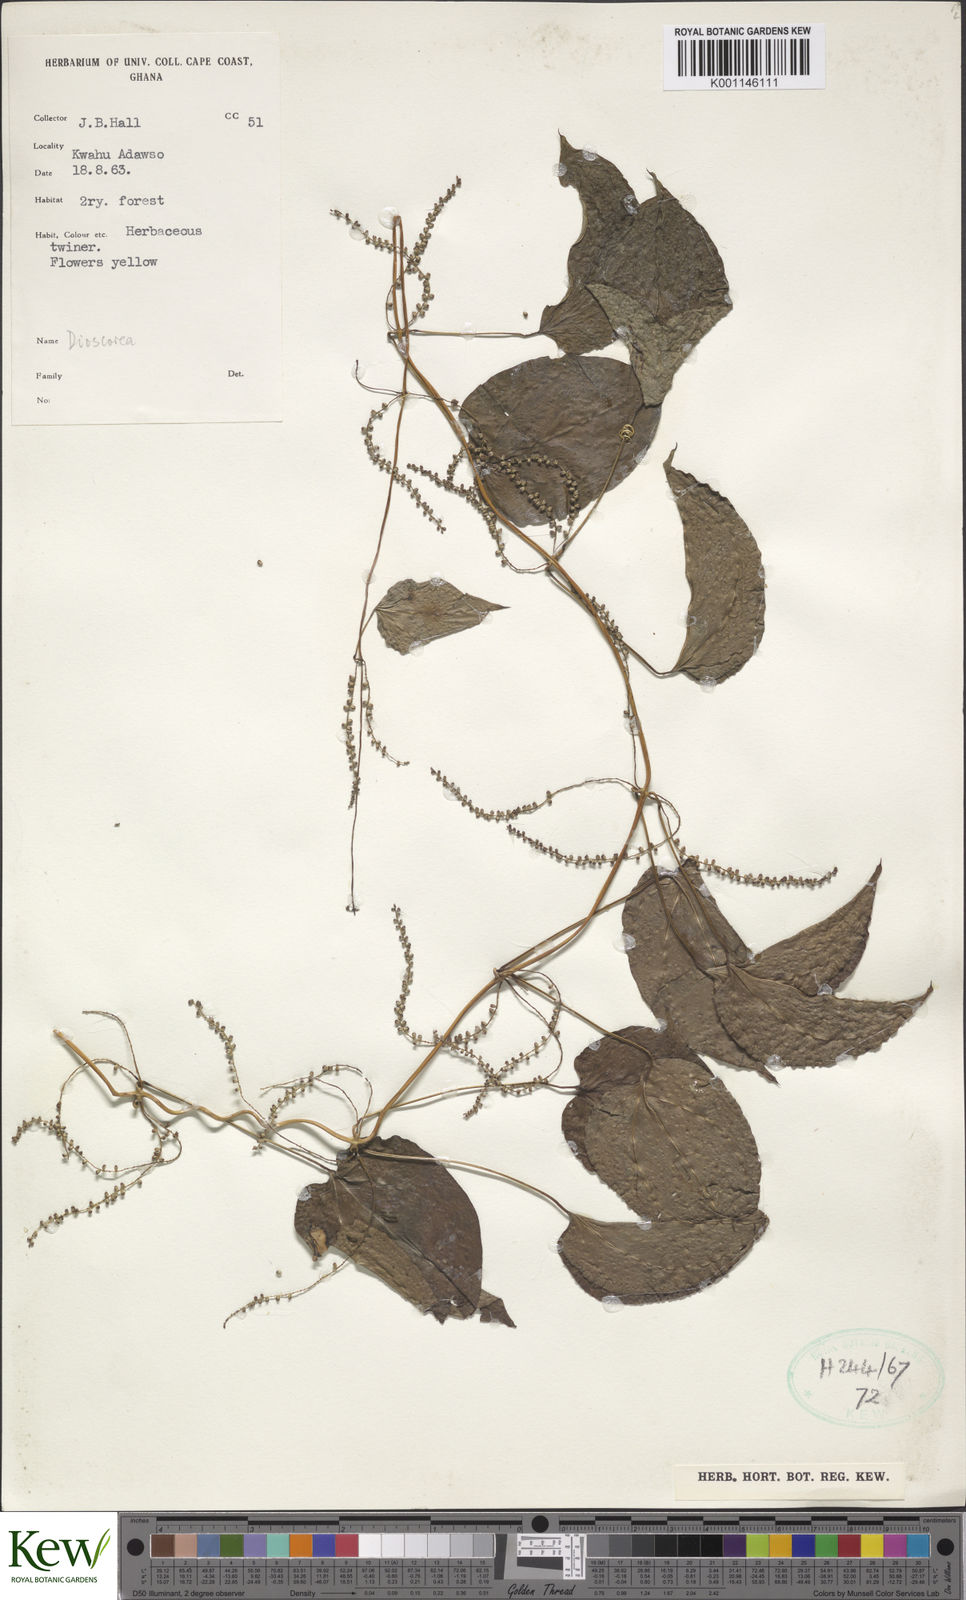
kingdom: Plantae
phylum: Tracheophyta
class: Liliopsida
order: Dioscoreales
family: Dioscoreaceae
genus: Dioscorea
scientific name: Dioscorea
